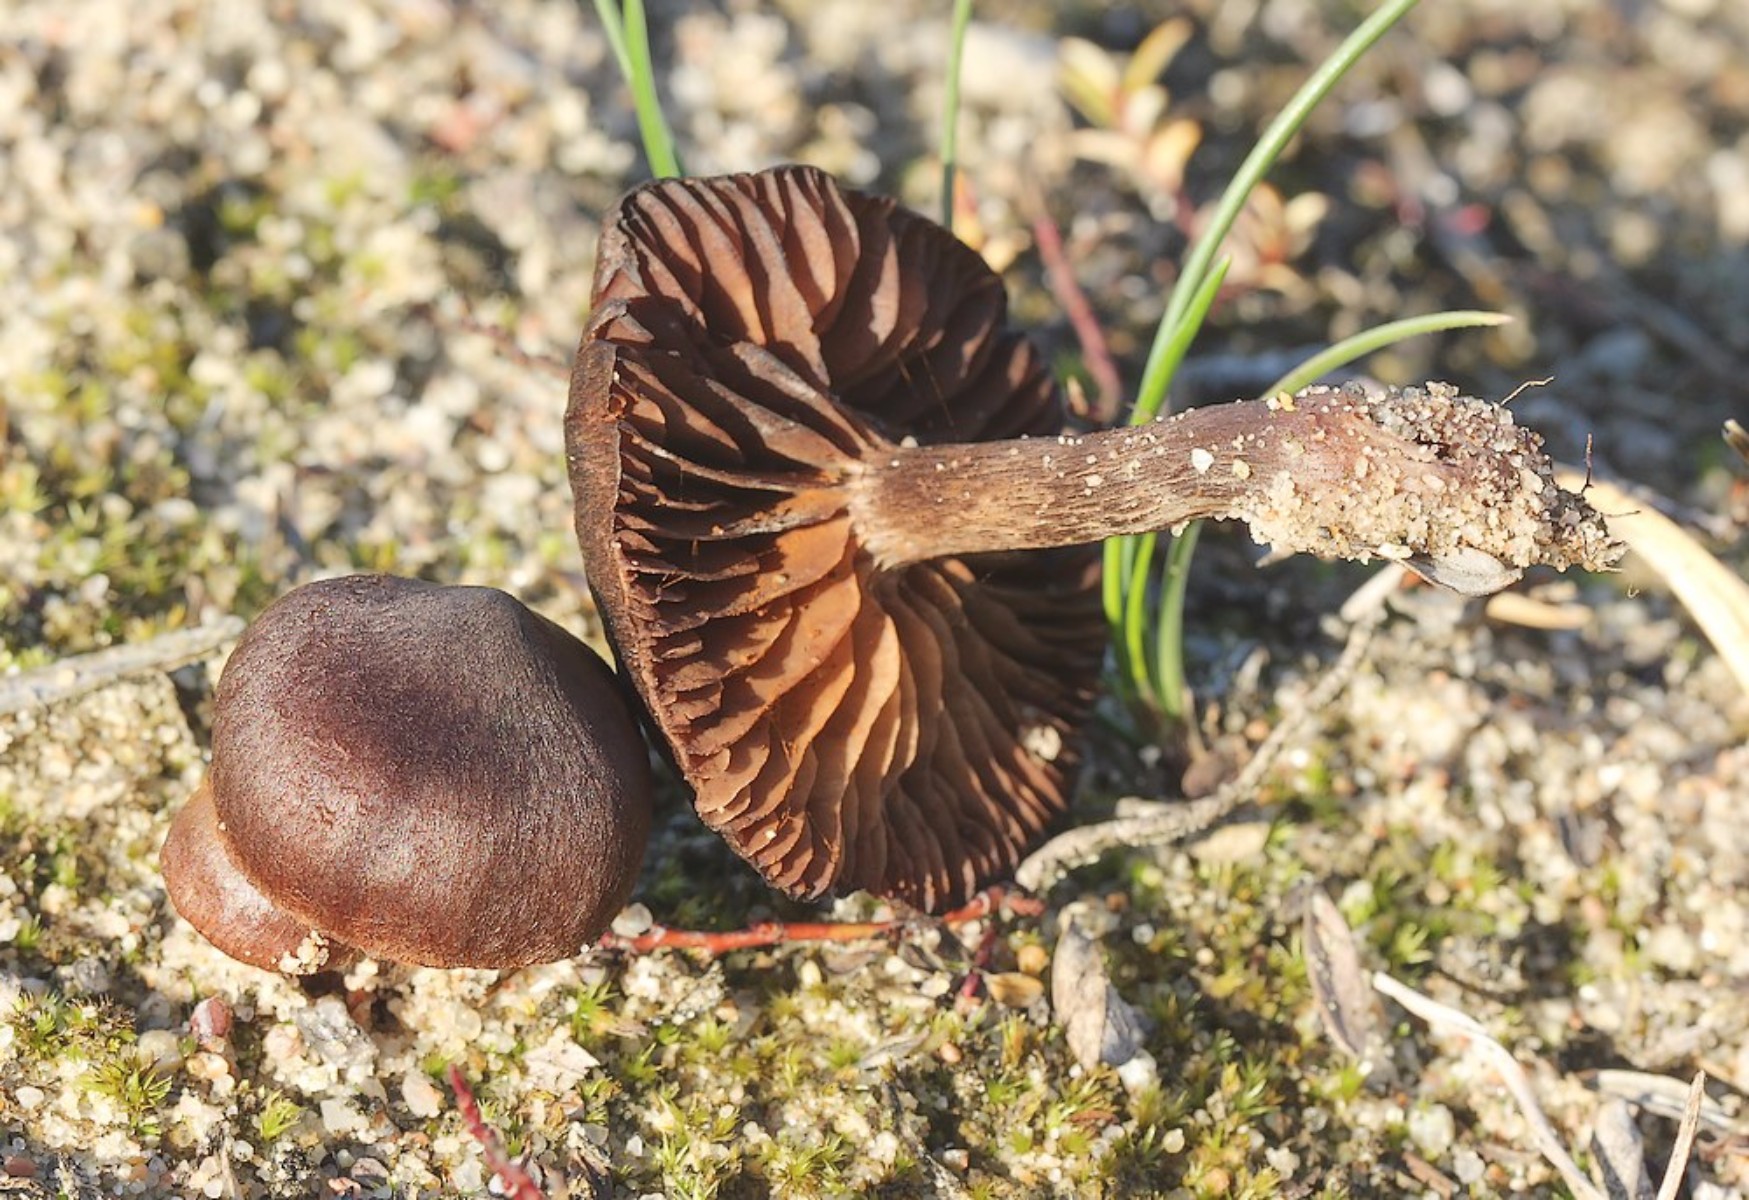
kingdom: Fungi
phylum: Basidiomycota
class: Agaricomycetes
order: Agaricales
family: Cortinariaceae
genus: Cortinarius
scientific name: Cortinarius suberythrinus
